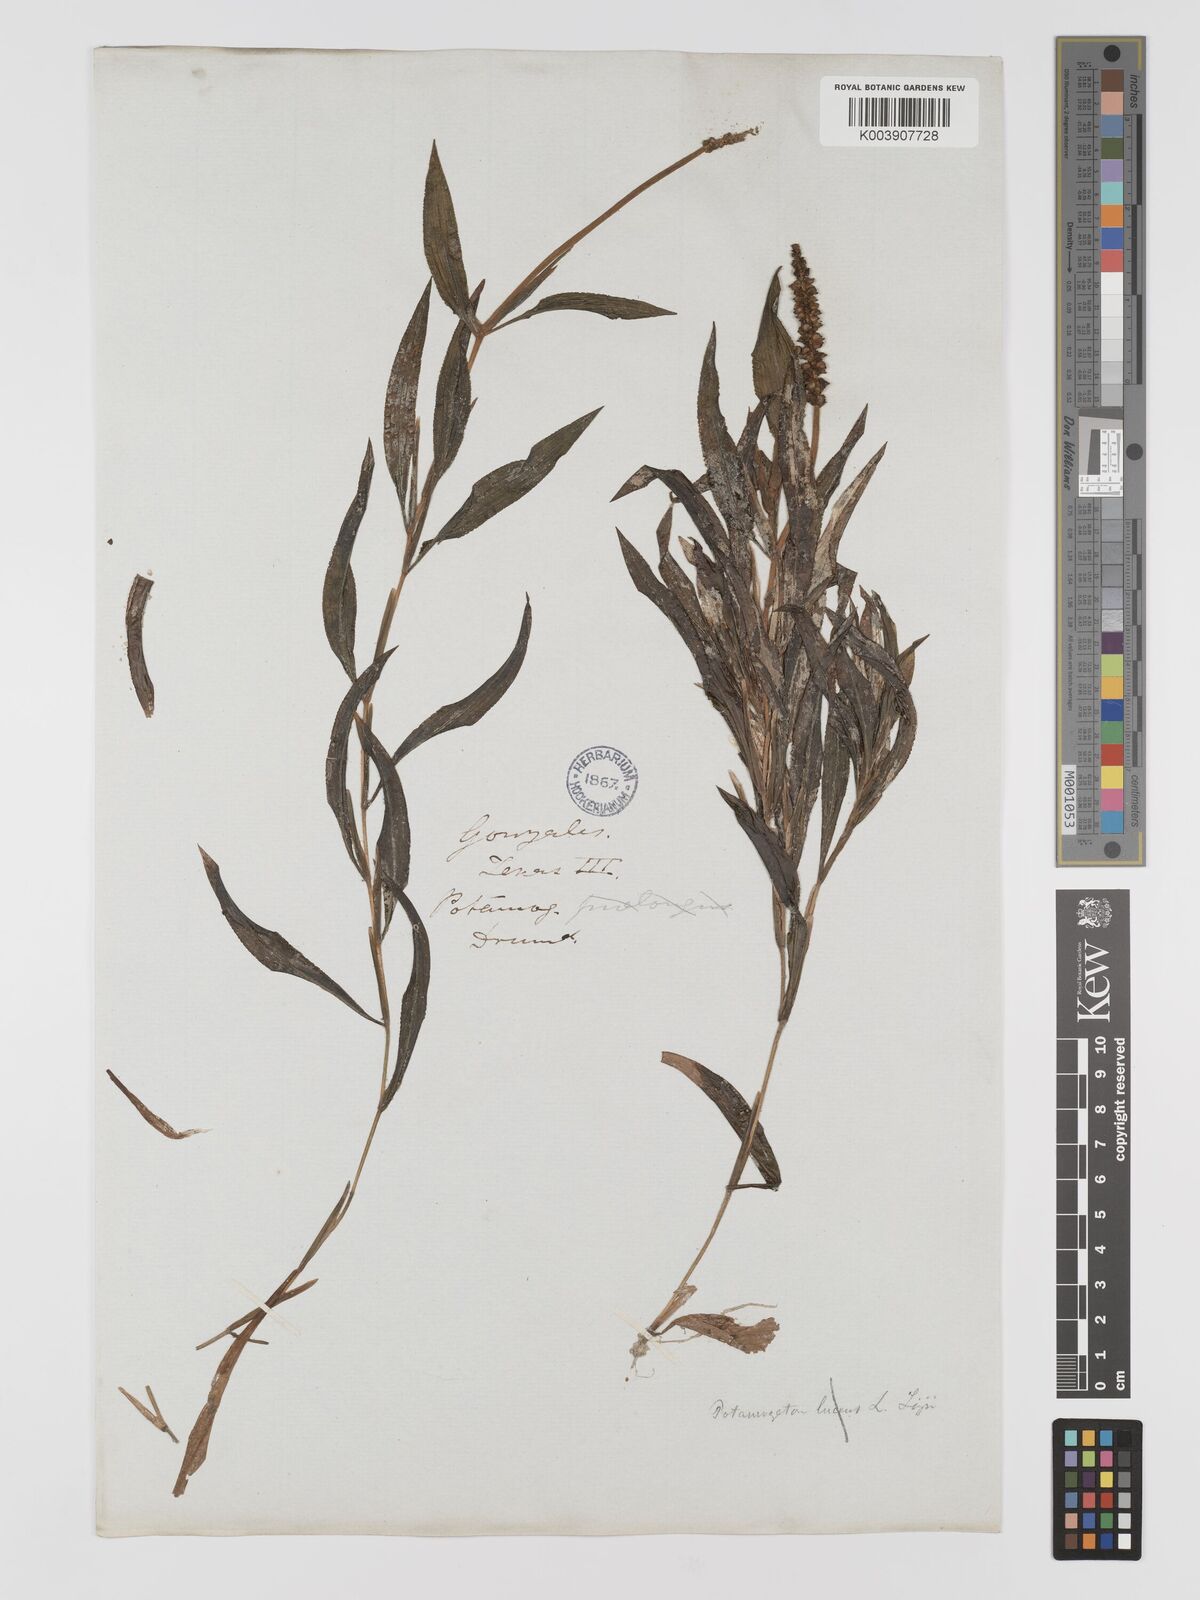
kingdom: Plantae
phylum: Tracheophyta
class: Liliopsida
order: Alismatales
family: Potamogetonaceae
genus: Potamogeton
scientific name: Potamogeton lucens
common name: Shining pondweed
